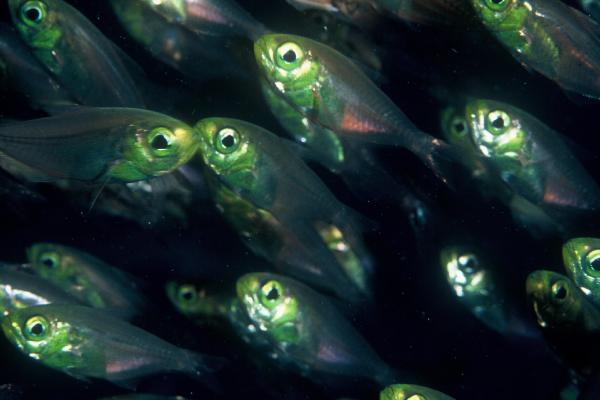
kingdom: Animalia
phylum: Chordata
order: Perciformes
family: Pempheridae
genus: Parapriacanthus
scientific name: Parapriacanthus
